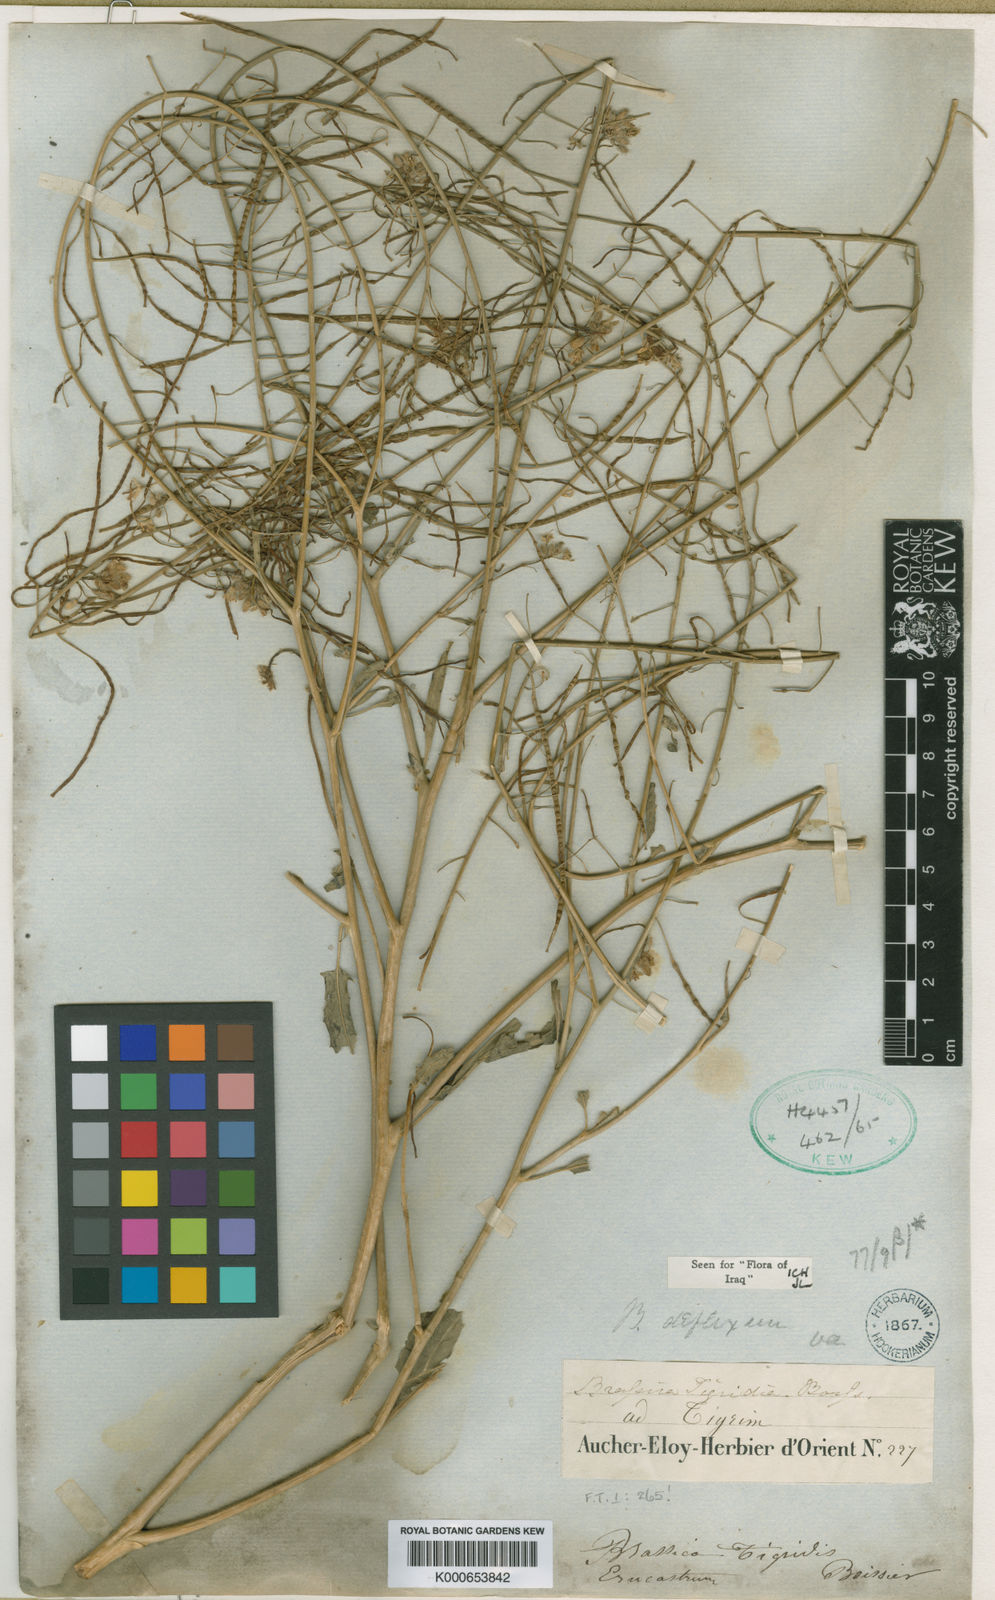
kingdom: Plantae
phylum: Tracheophyta
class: Magnoliopsida
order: Brassicales
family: Brassicaceae
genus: Brassica
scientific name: Brassica deflexa
